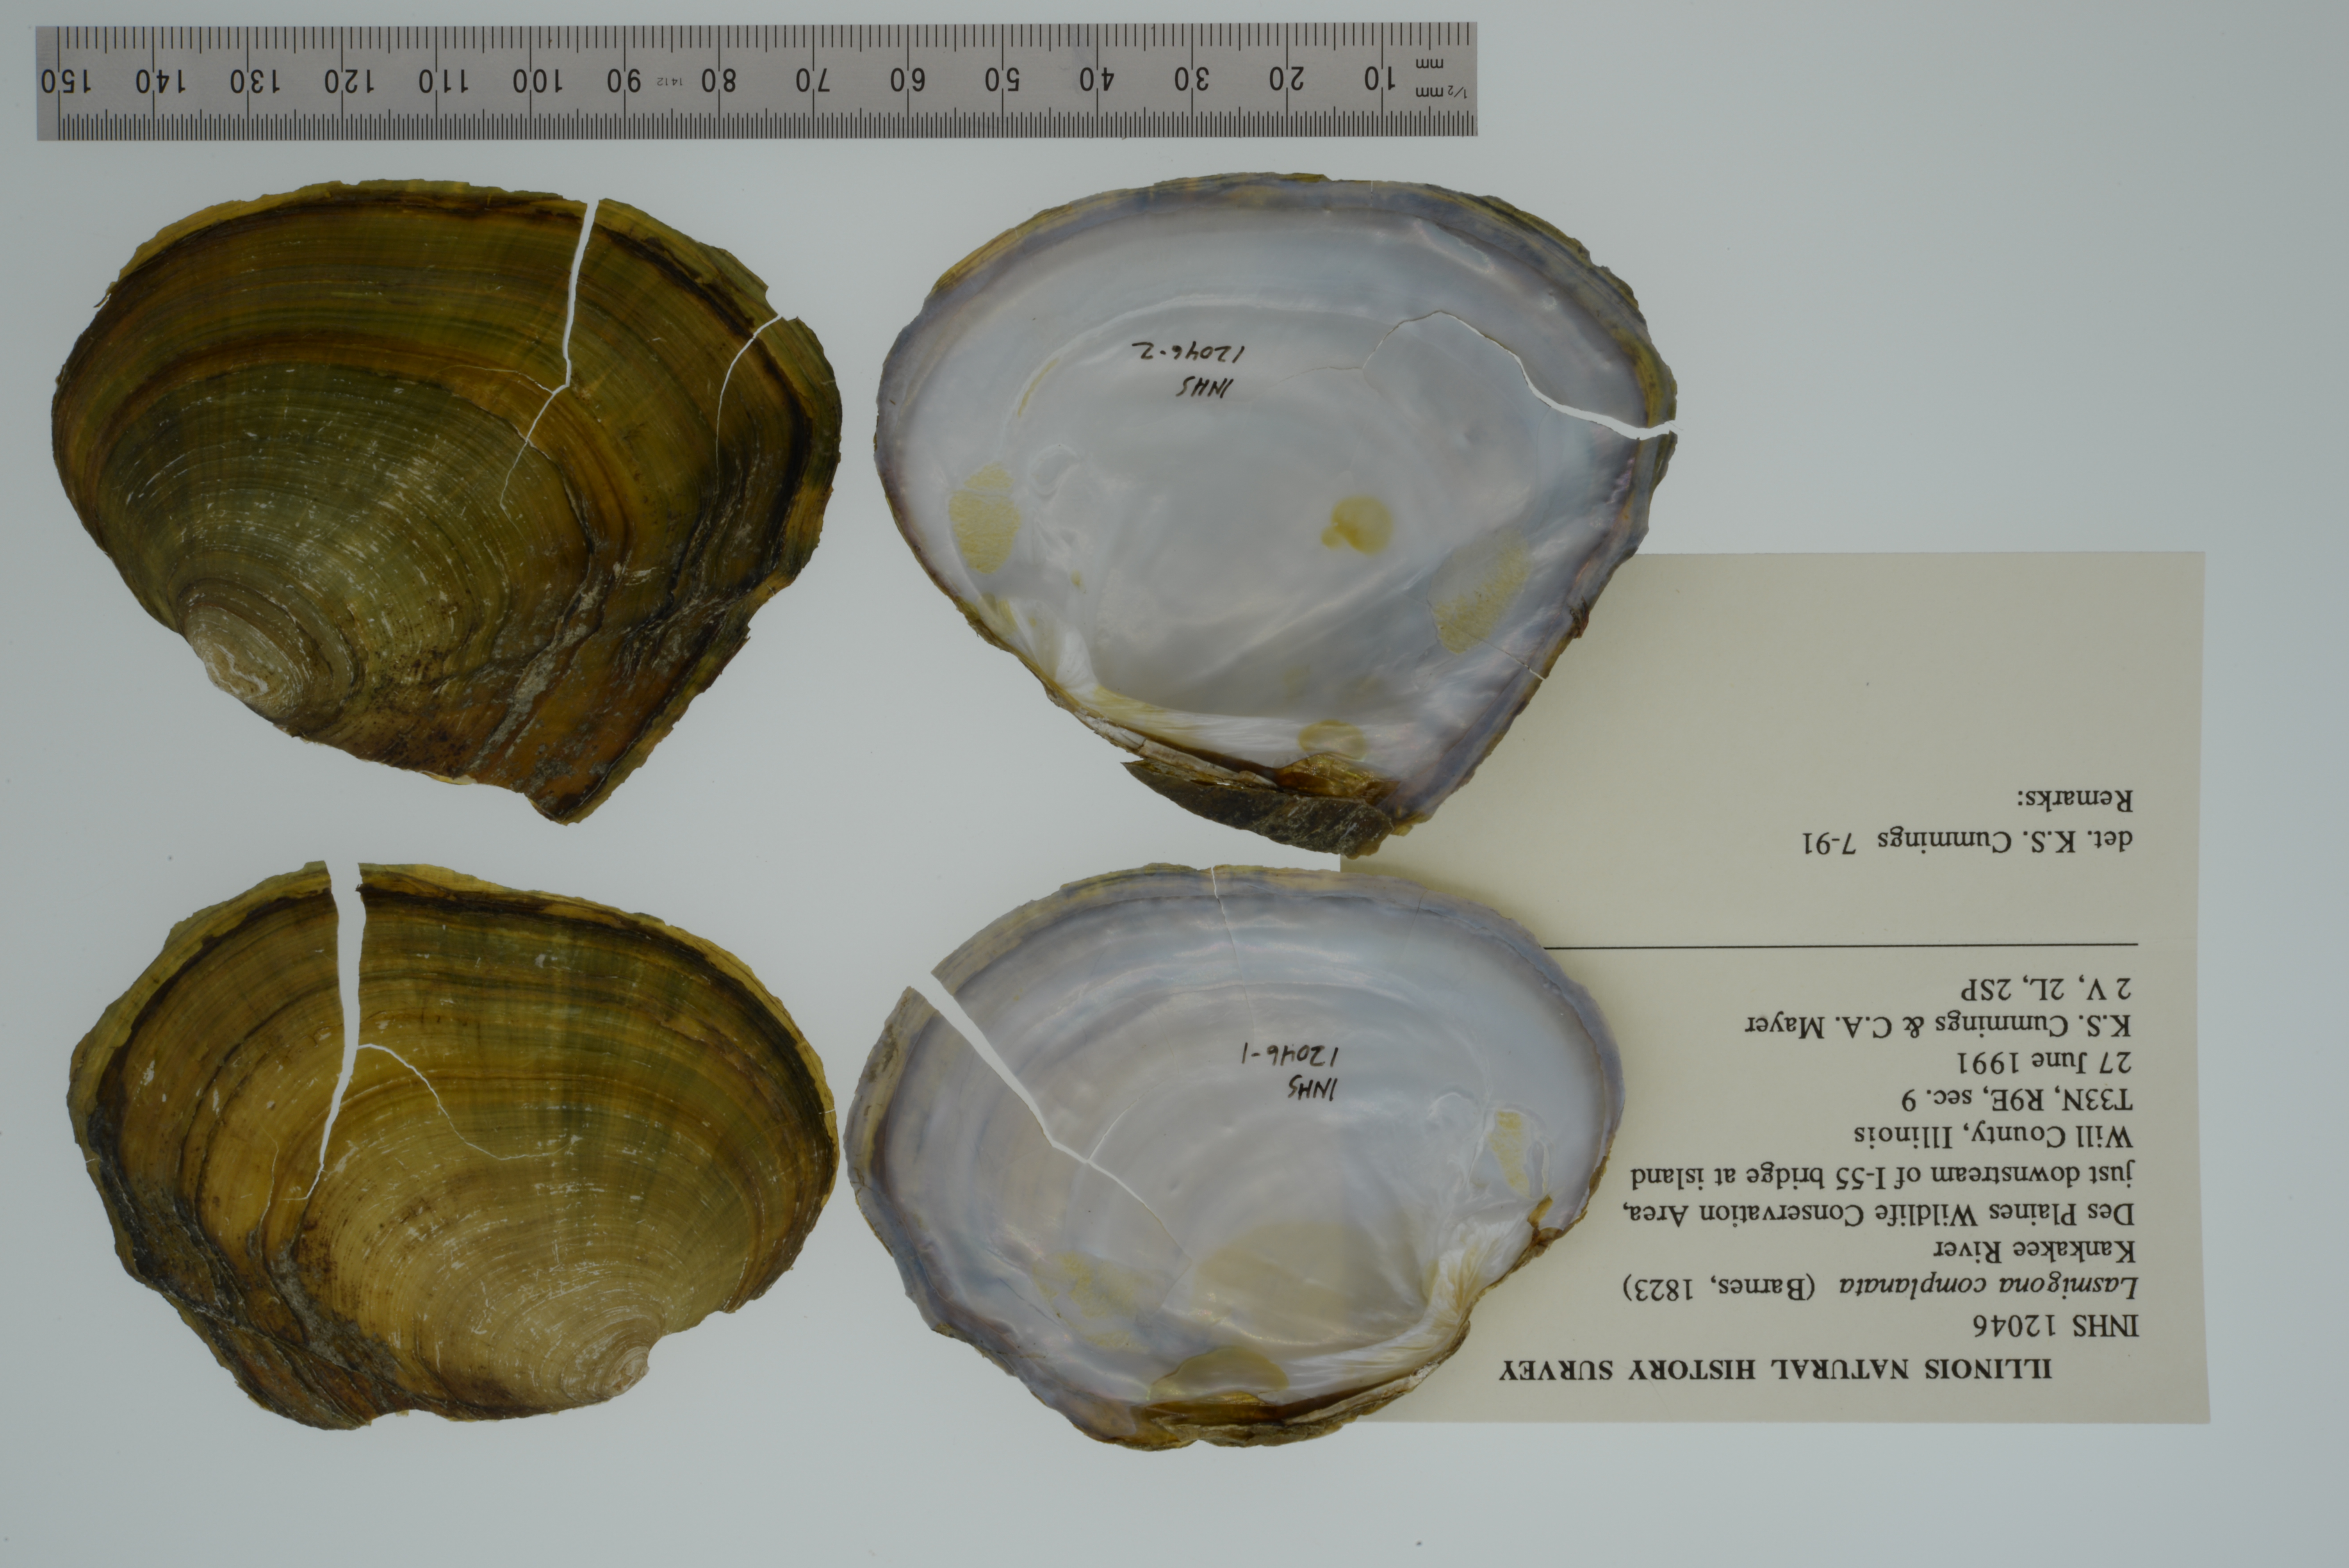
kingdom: Animalia
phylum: Mollusca
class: Bivalvia
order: Unionida
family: Unionidae
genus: Lasmigona
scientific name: Lasmigona complanata
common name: White heelsplitter
